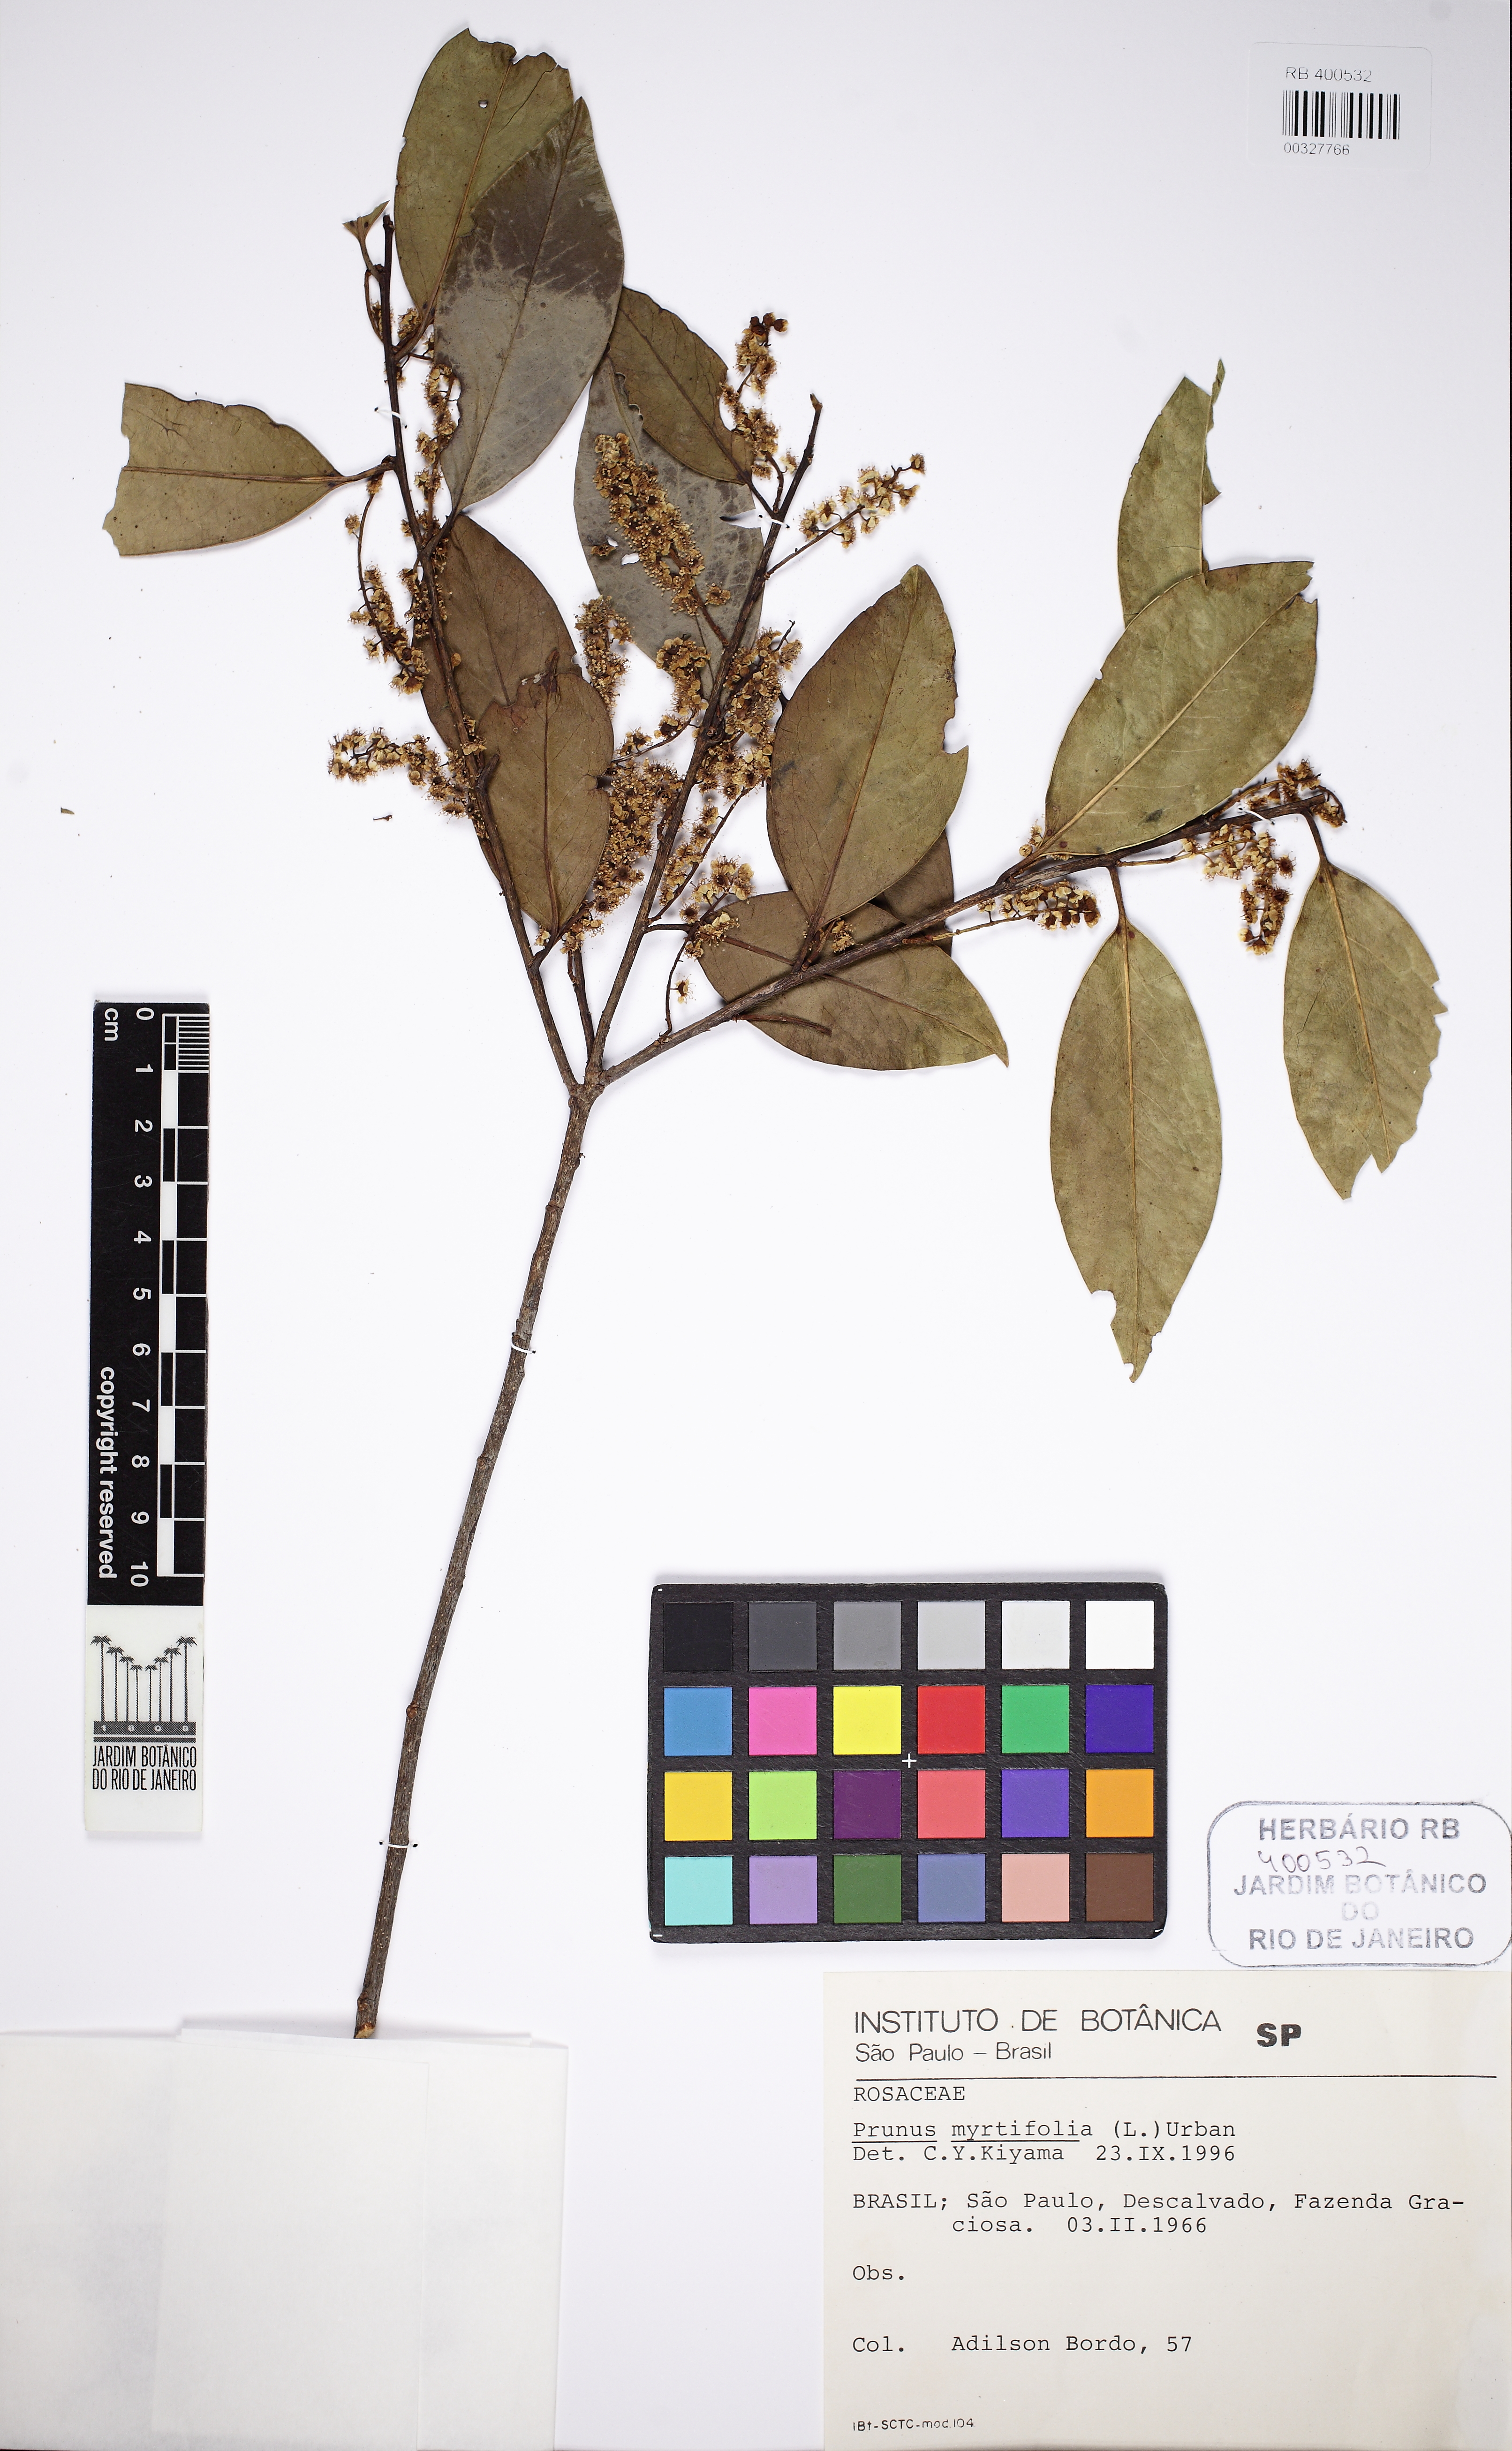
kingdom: Plantae
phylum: Tracheophyta
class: Magnoliopsida
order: Rosales
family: Rosaceae
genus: Prunus
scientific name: Prunus myrtifolia
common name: West indies cherry
